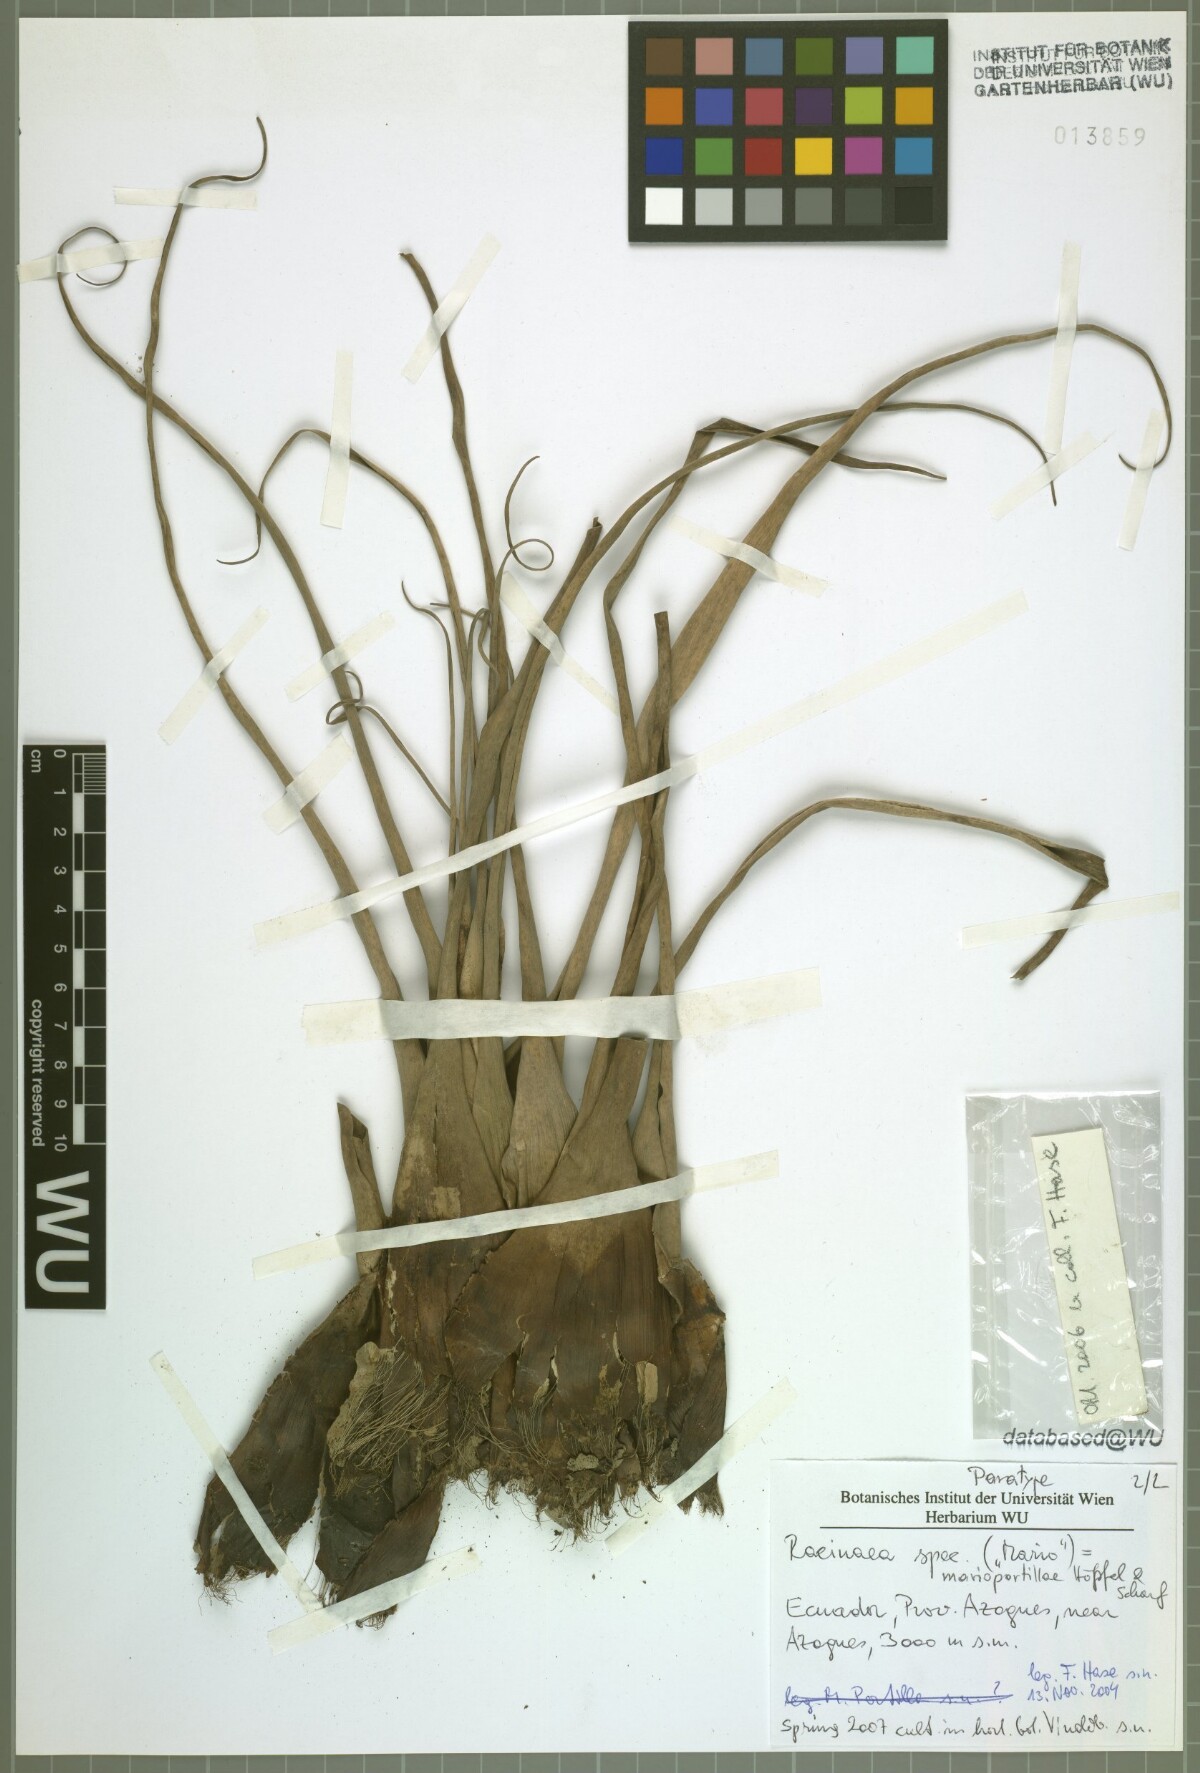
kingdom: Plantae
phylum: Tracheophyta
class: Liliopsida
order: Poales
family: Bromeliaceae
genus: Racinaea
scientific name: Racinaea marioportillae
